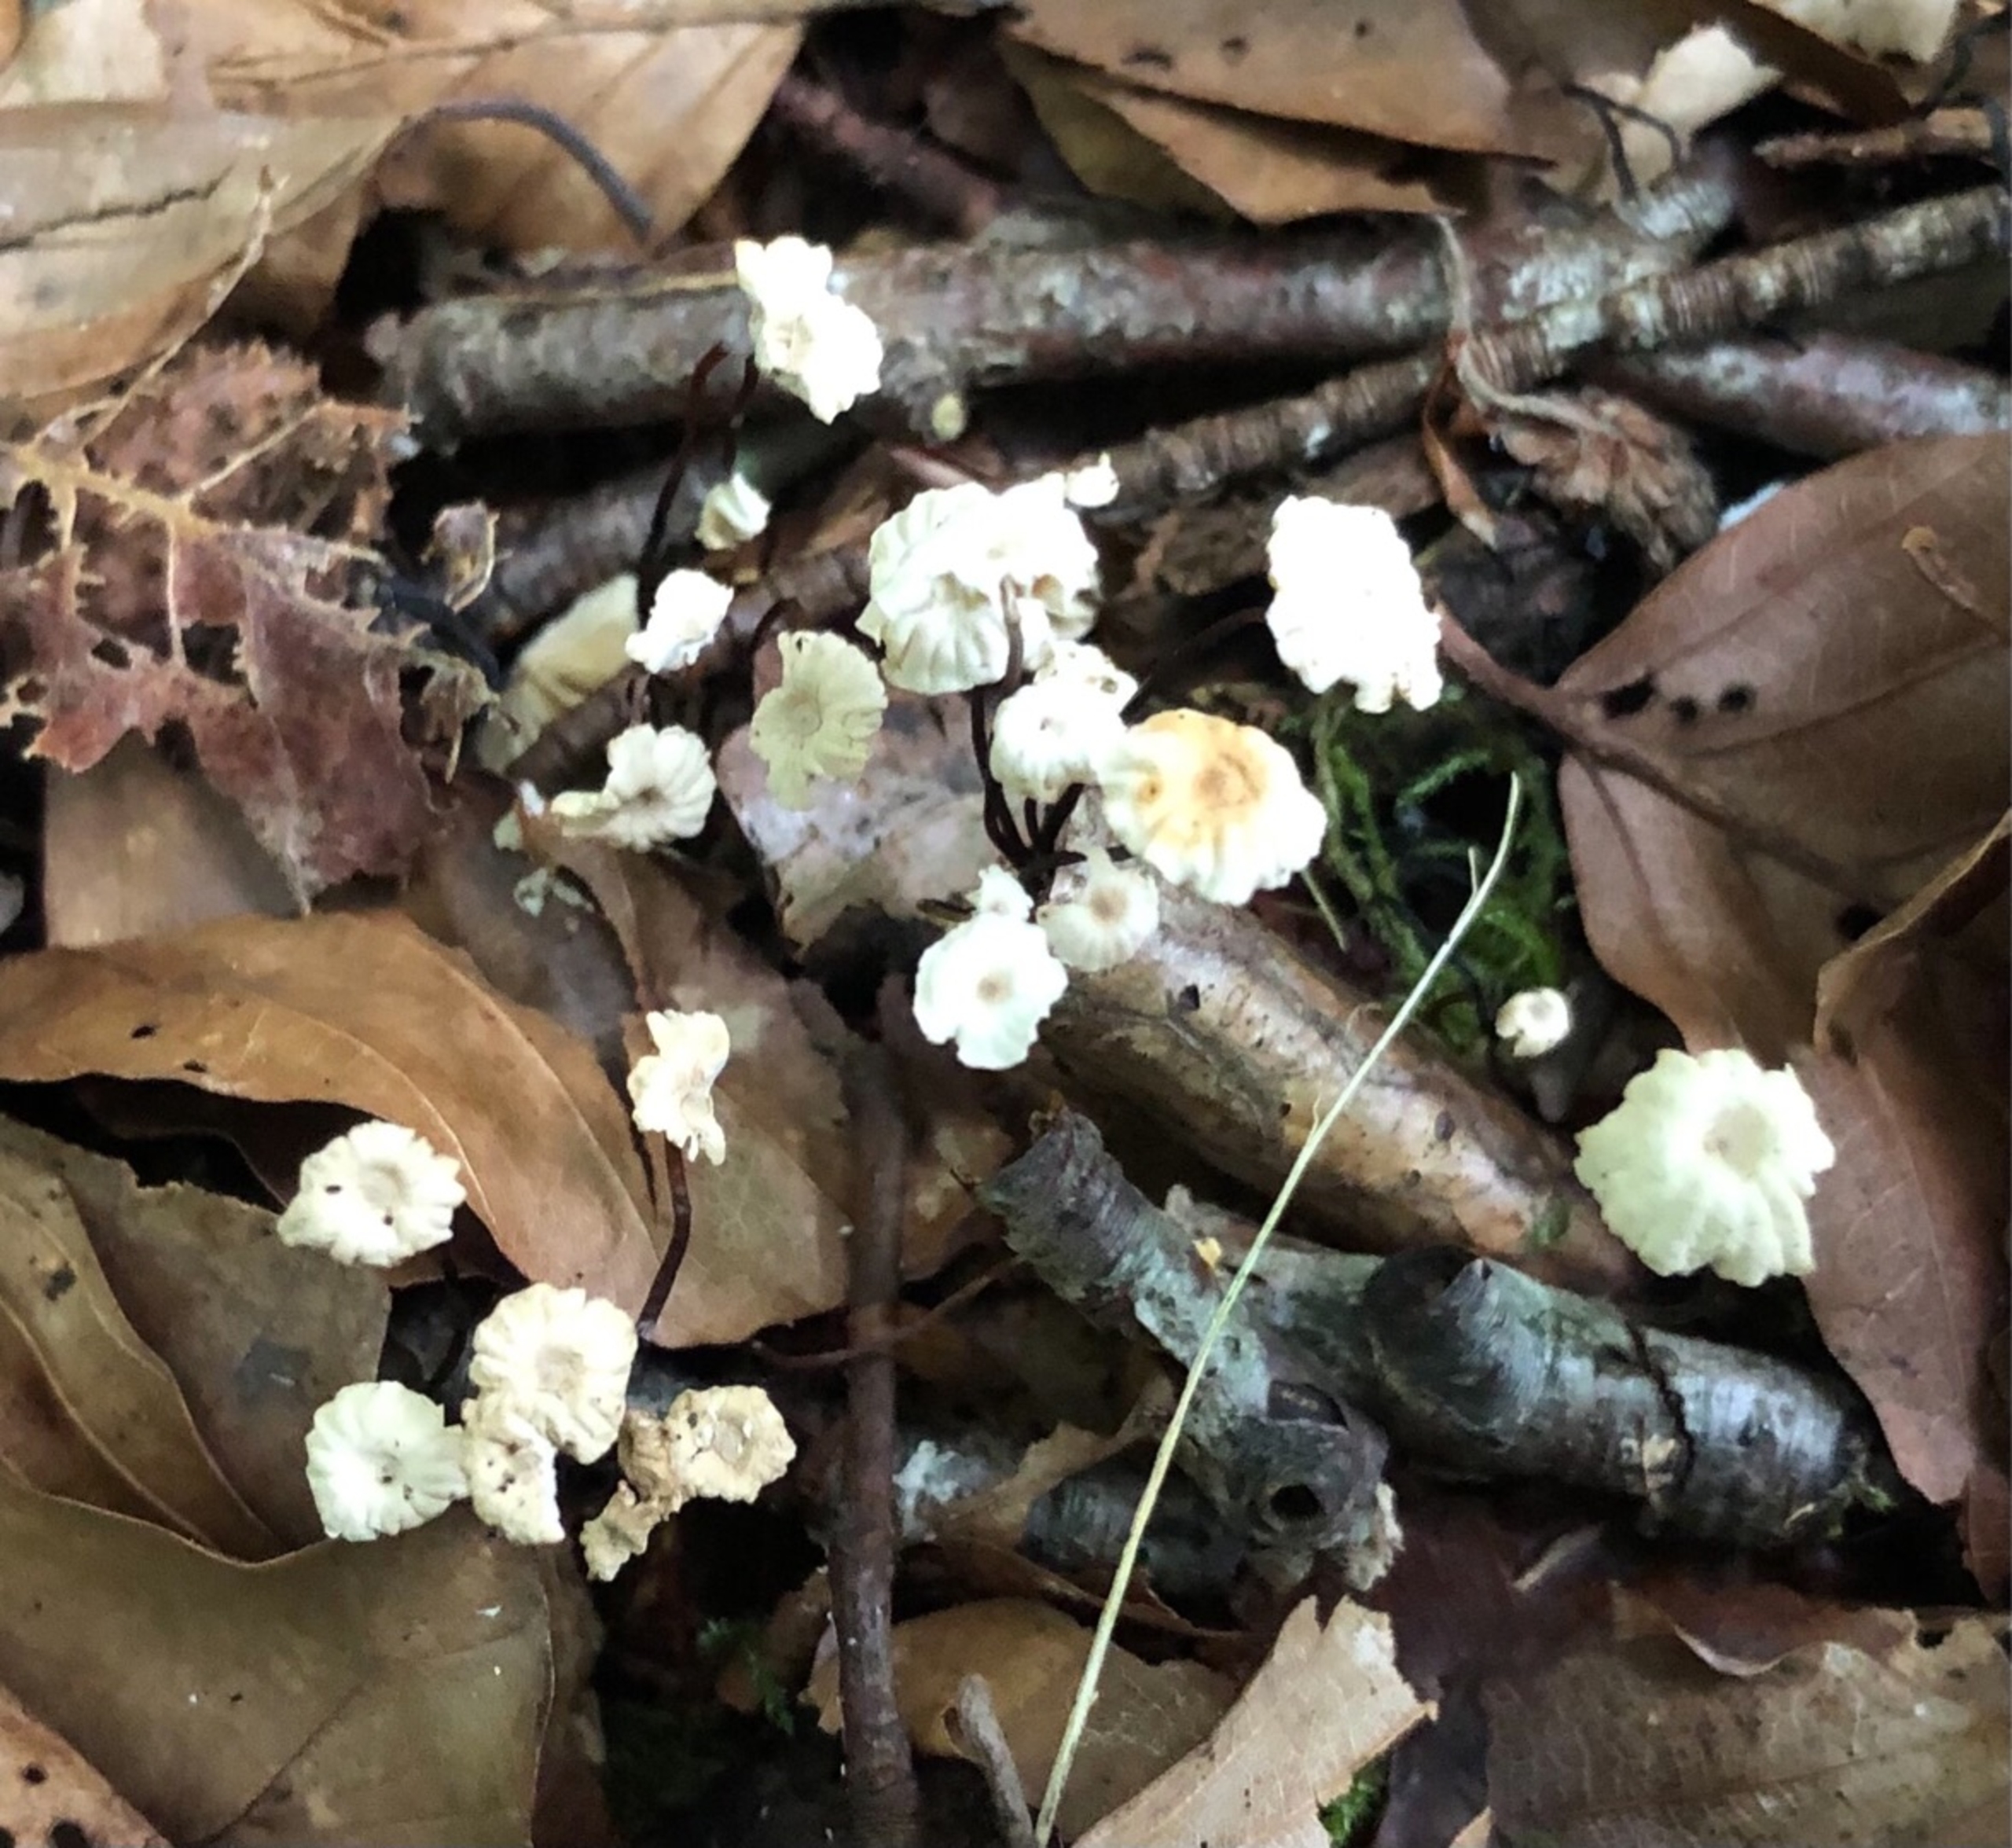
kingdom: Fungi
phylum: Basidiomycota
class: Agaricomycetes
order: Agaricales
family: Marasmiaceae
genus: Marasmius
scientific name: Marasmius rotula
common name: Hjul-bruskhat
